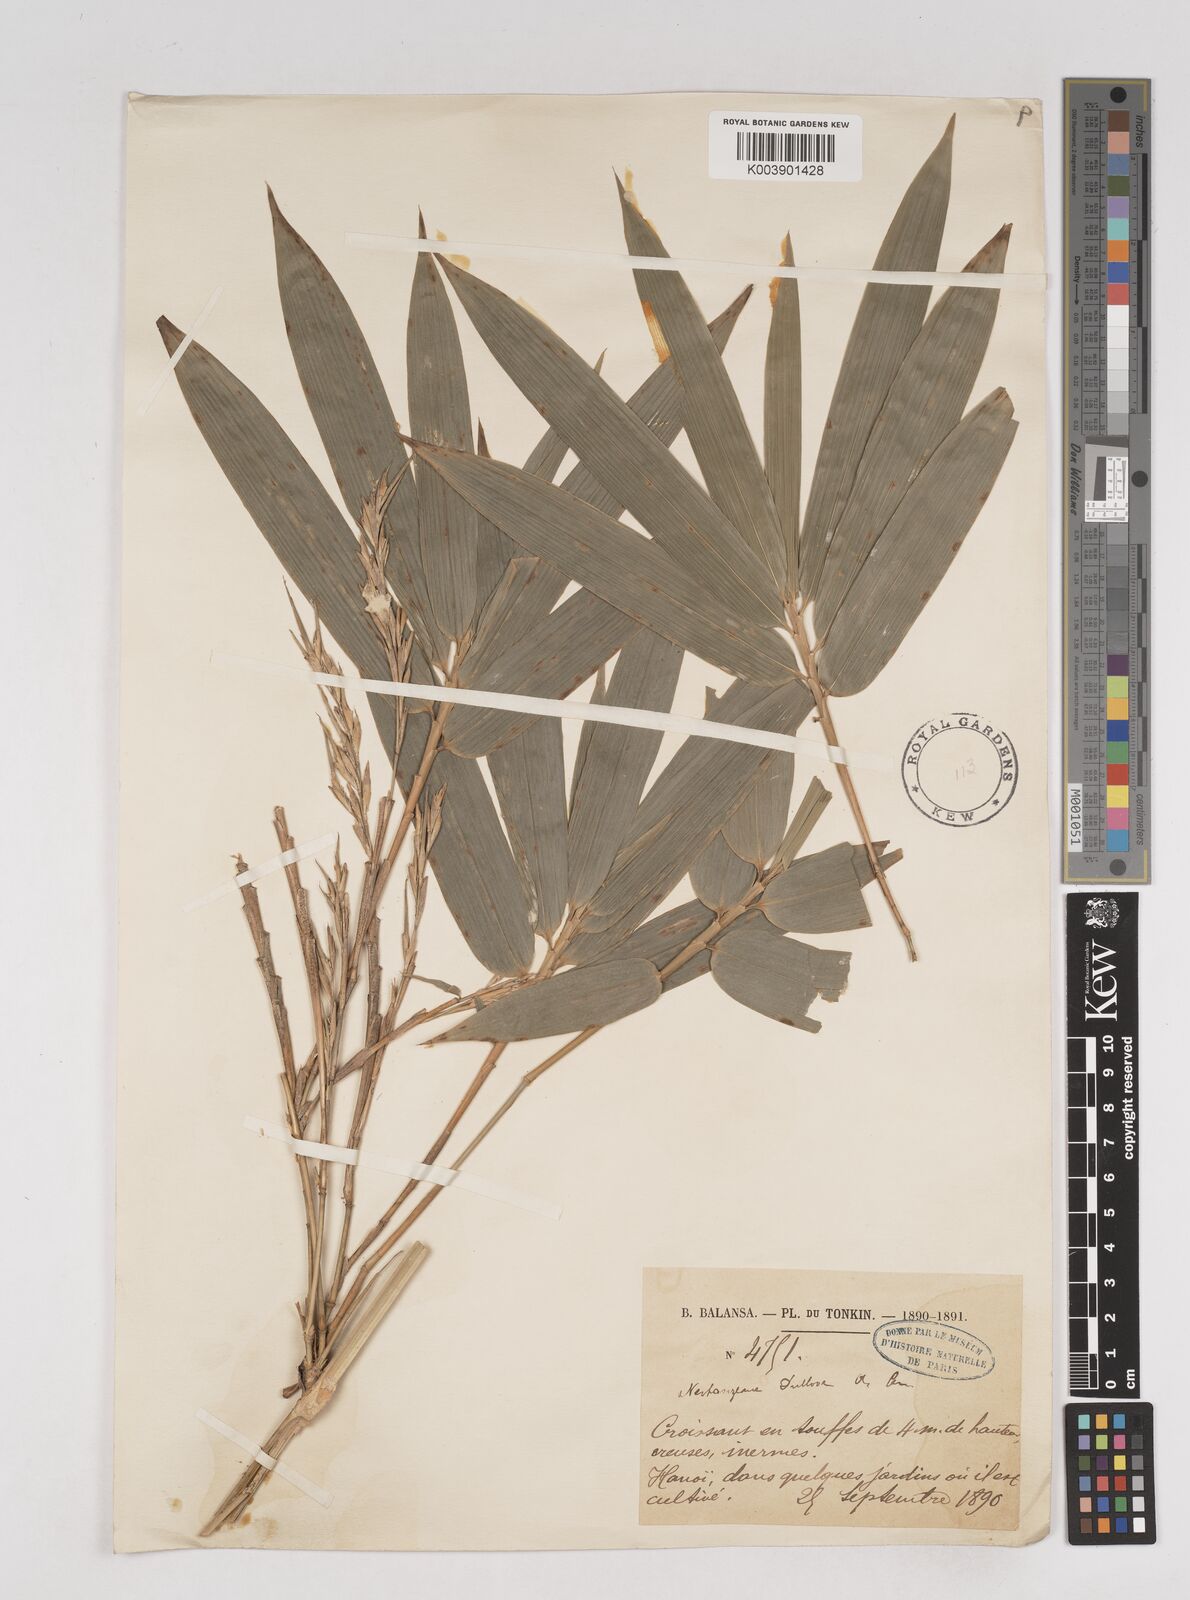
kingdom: Plantae
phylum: Tracheophyta
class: Liliopsida
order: Poales
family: Poaceae
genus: Schizostachyum
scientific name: Schizostachyum dullooa
